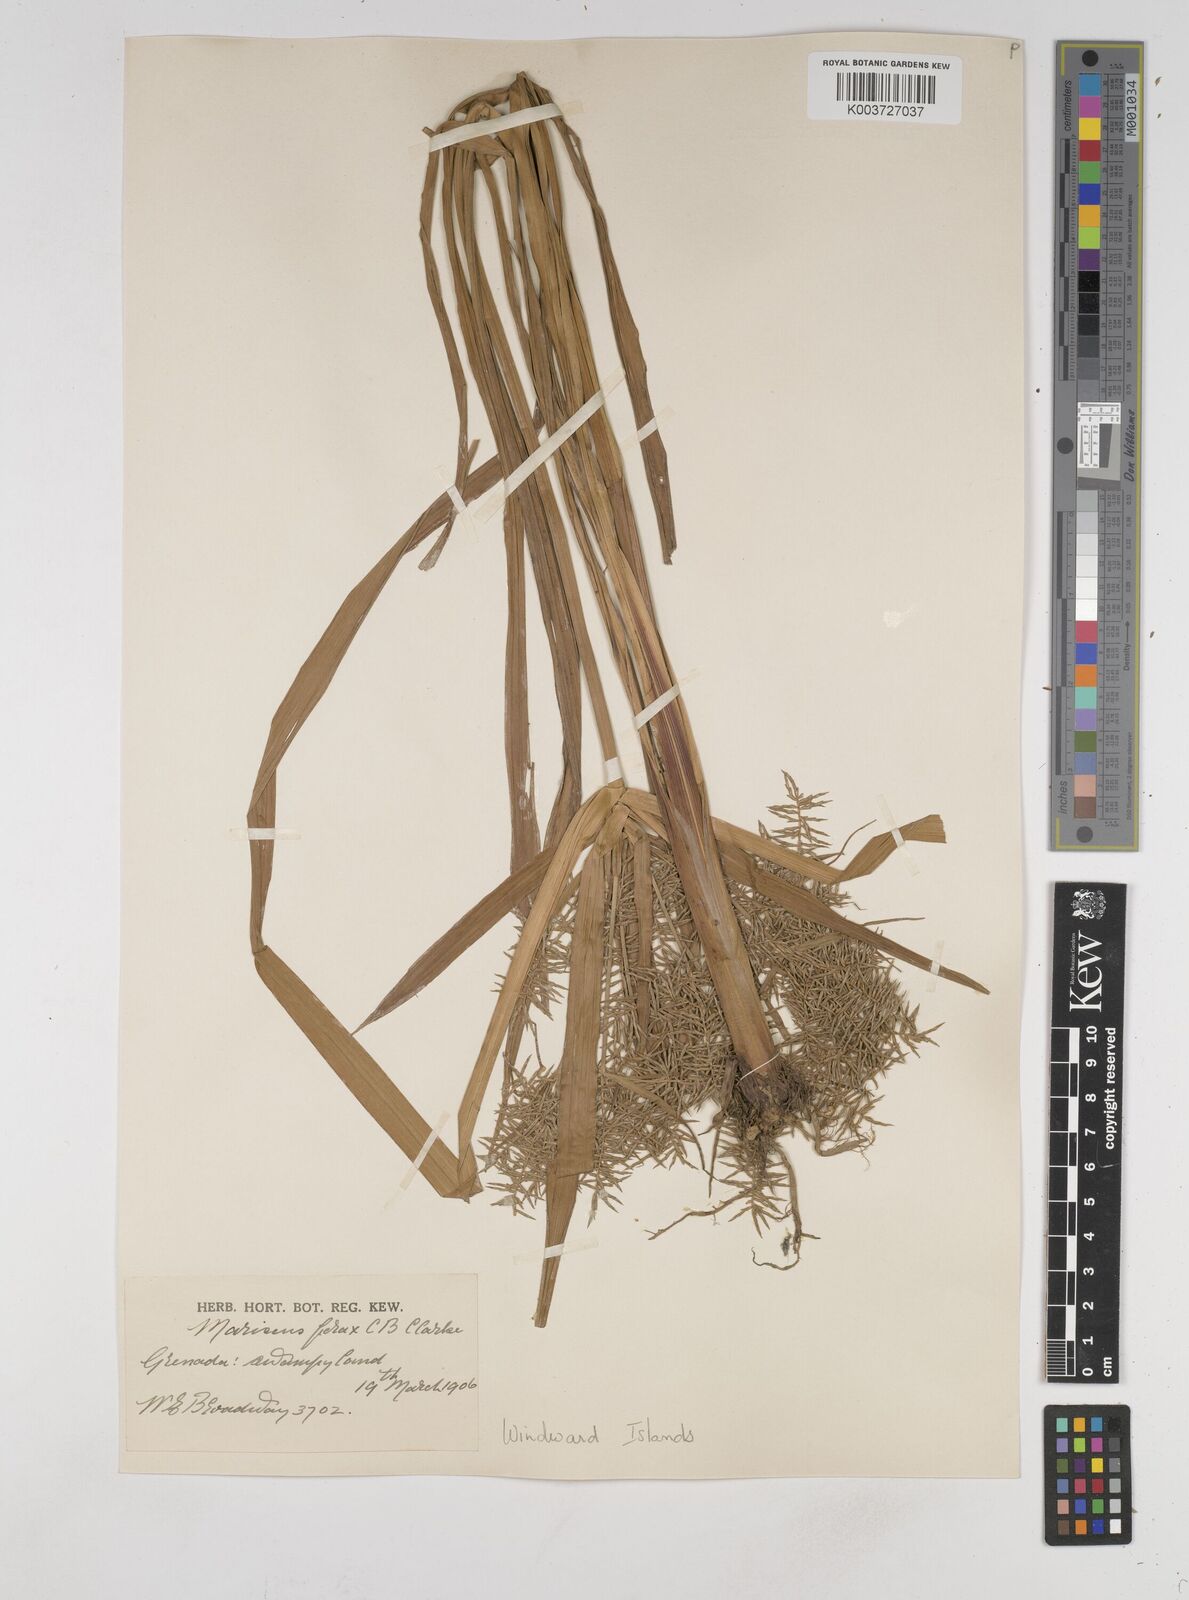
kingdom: Plantae
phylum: Tracheophyta
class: Liliopsida
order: Poales
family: Cyperaceae
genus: Cyperus
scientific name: Cyperus odoratus
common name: Fragrant flatsedge
